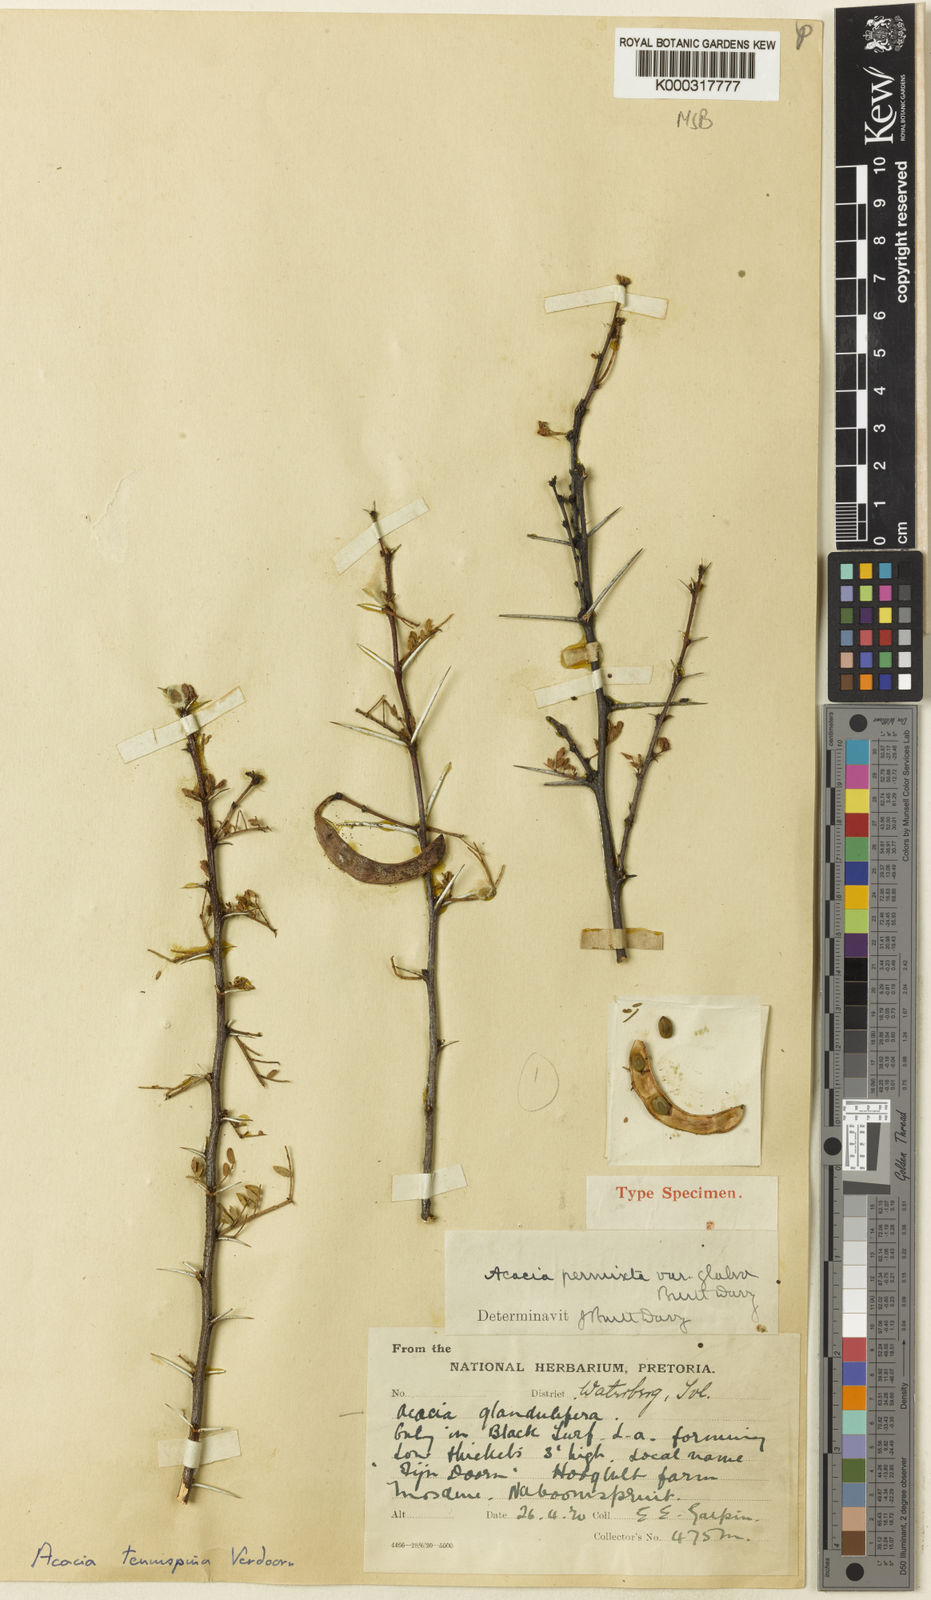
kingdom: Plantae
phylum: Tracheophyta
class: Magnoliopsida
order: Fabales
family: Fabaceae
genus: Vachellia
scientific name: Vachellia tenuispina
